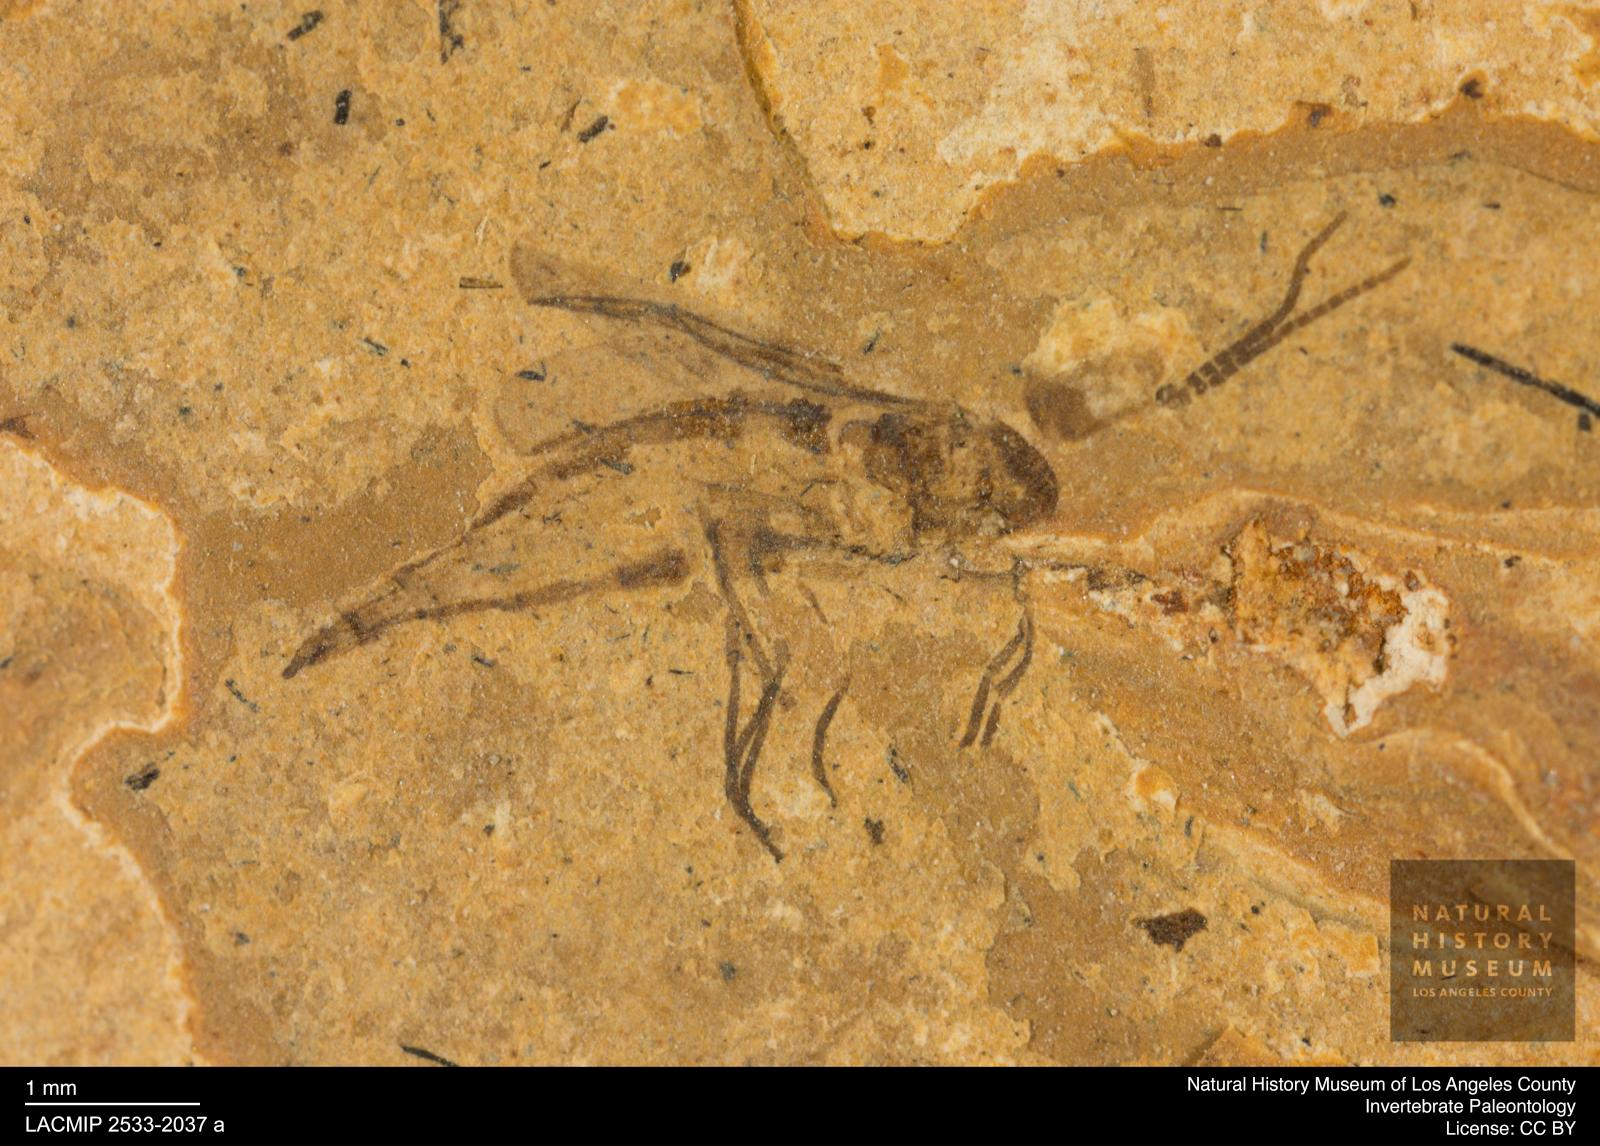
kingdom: Animalia
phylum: Arthropoda
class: Insecta
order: Diptera
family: Sciaridae
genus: Sciara
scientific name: Sciara heydeni
